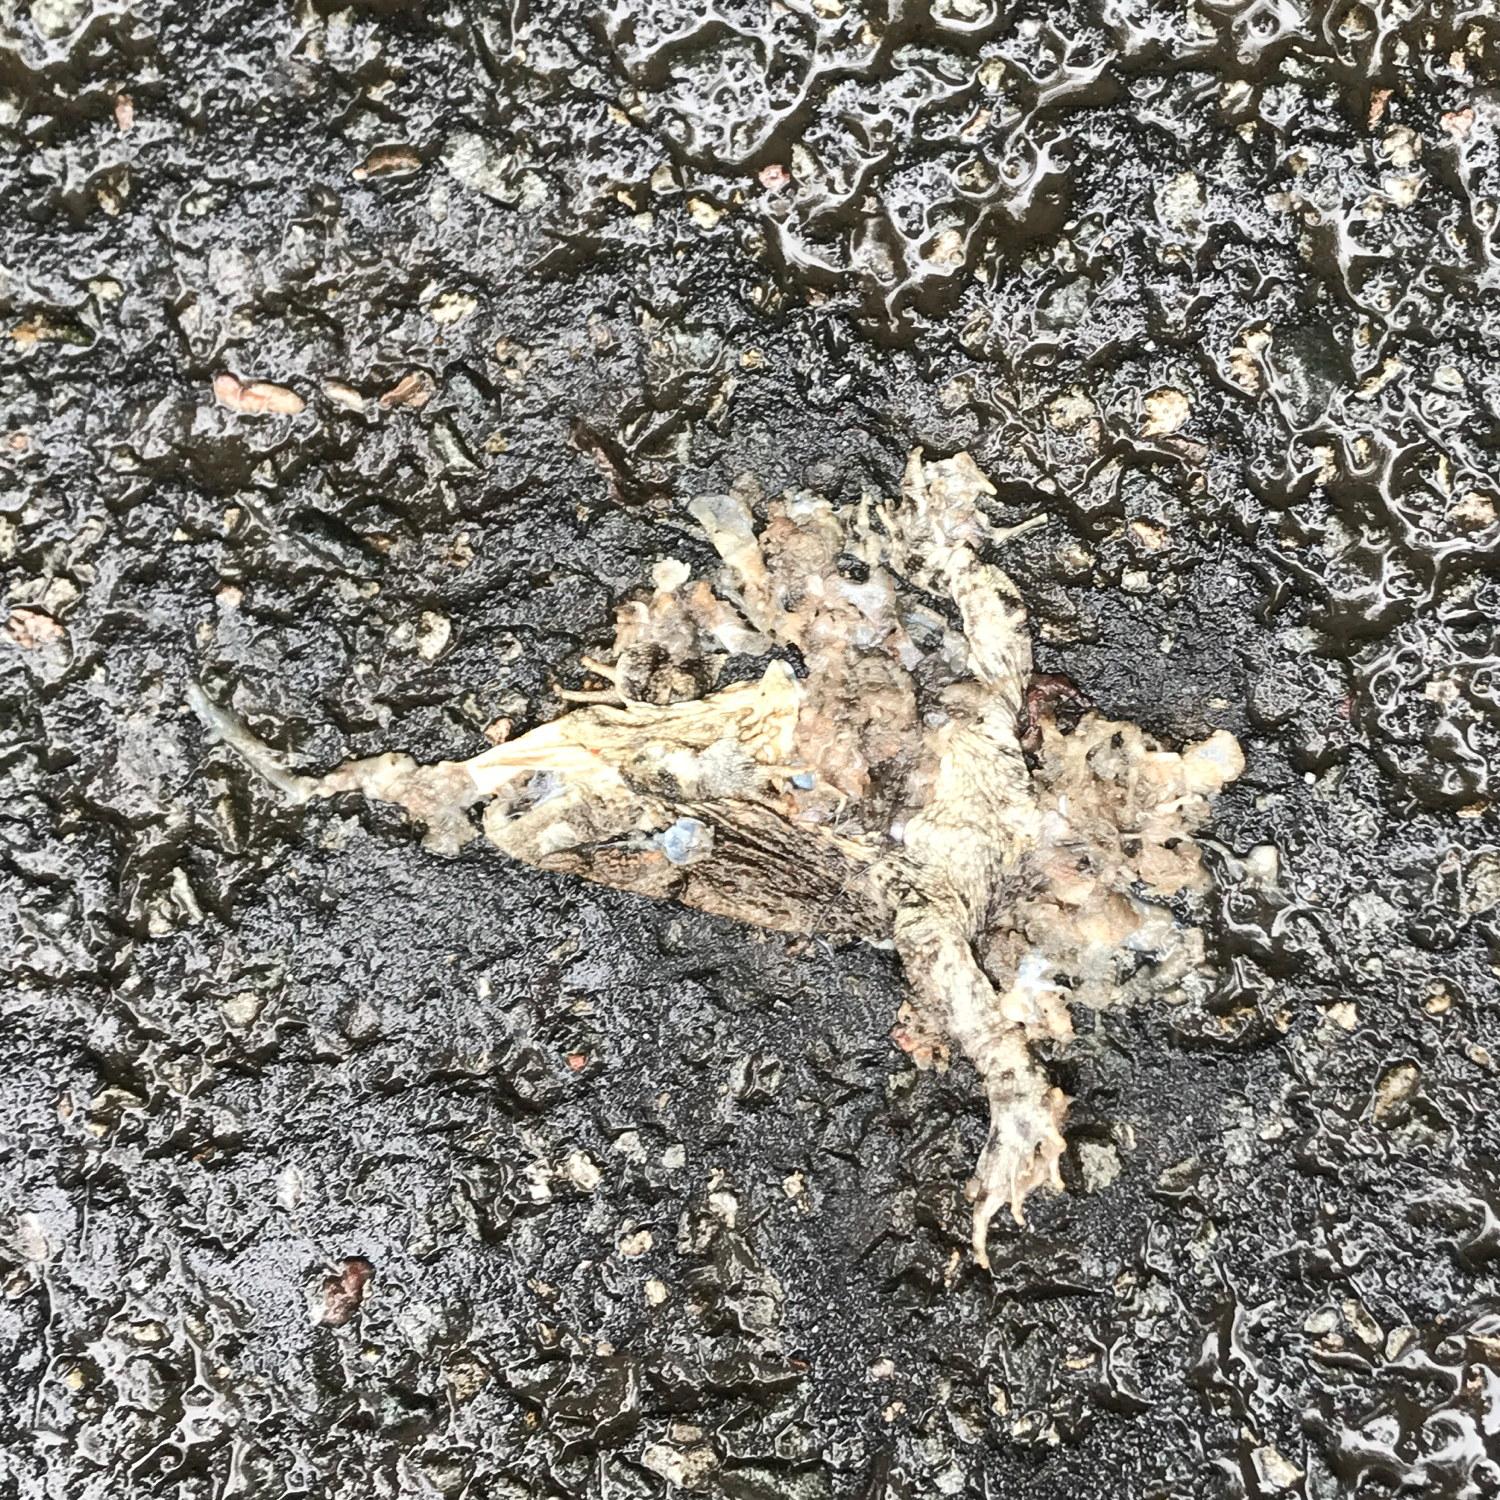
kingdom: Animalia
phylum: Chordata
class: Amphibia
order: Anura
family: Bufonidae
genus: Bufo
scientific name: Bufo bufo
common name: Common toad
